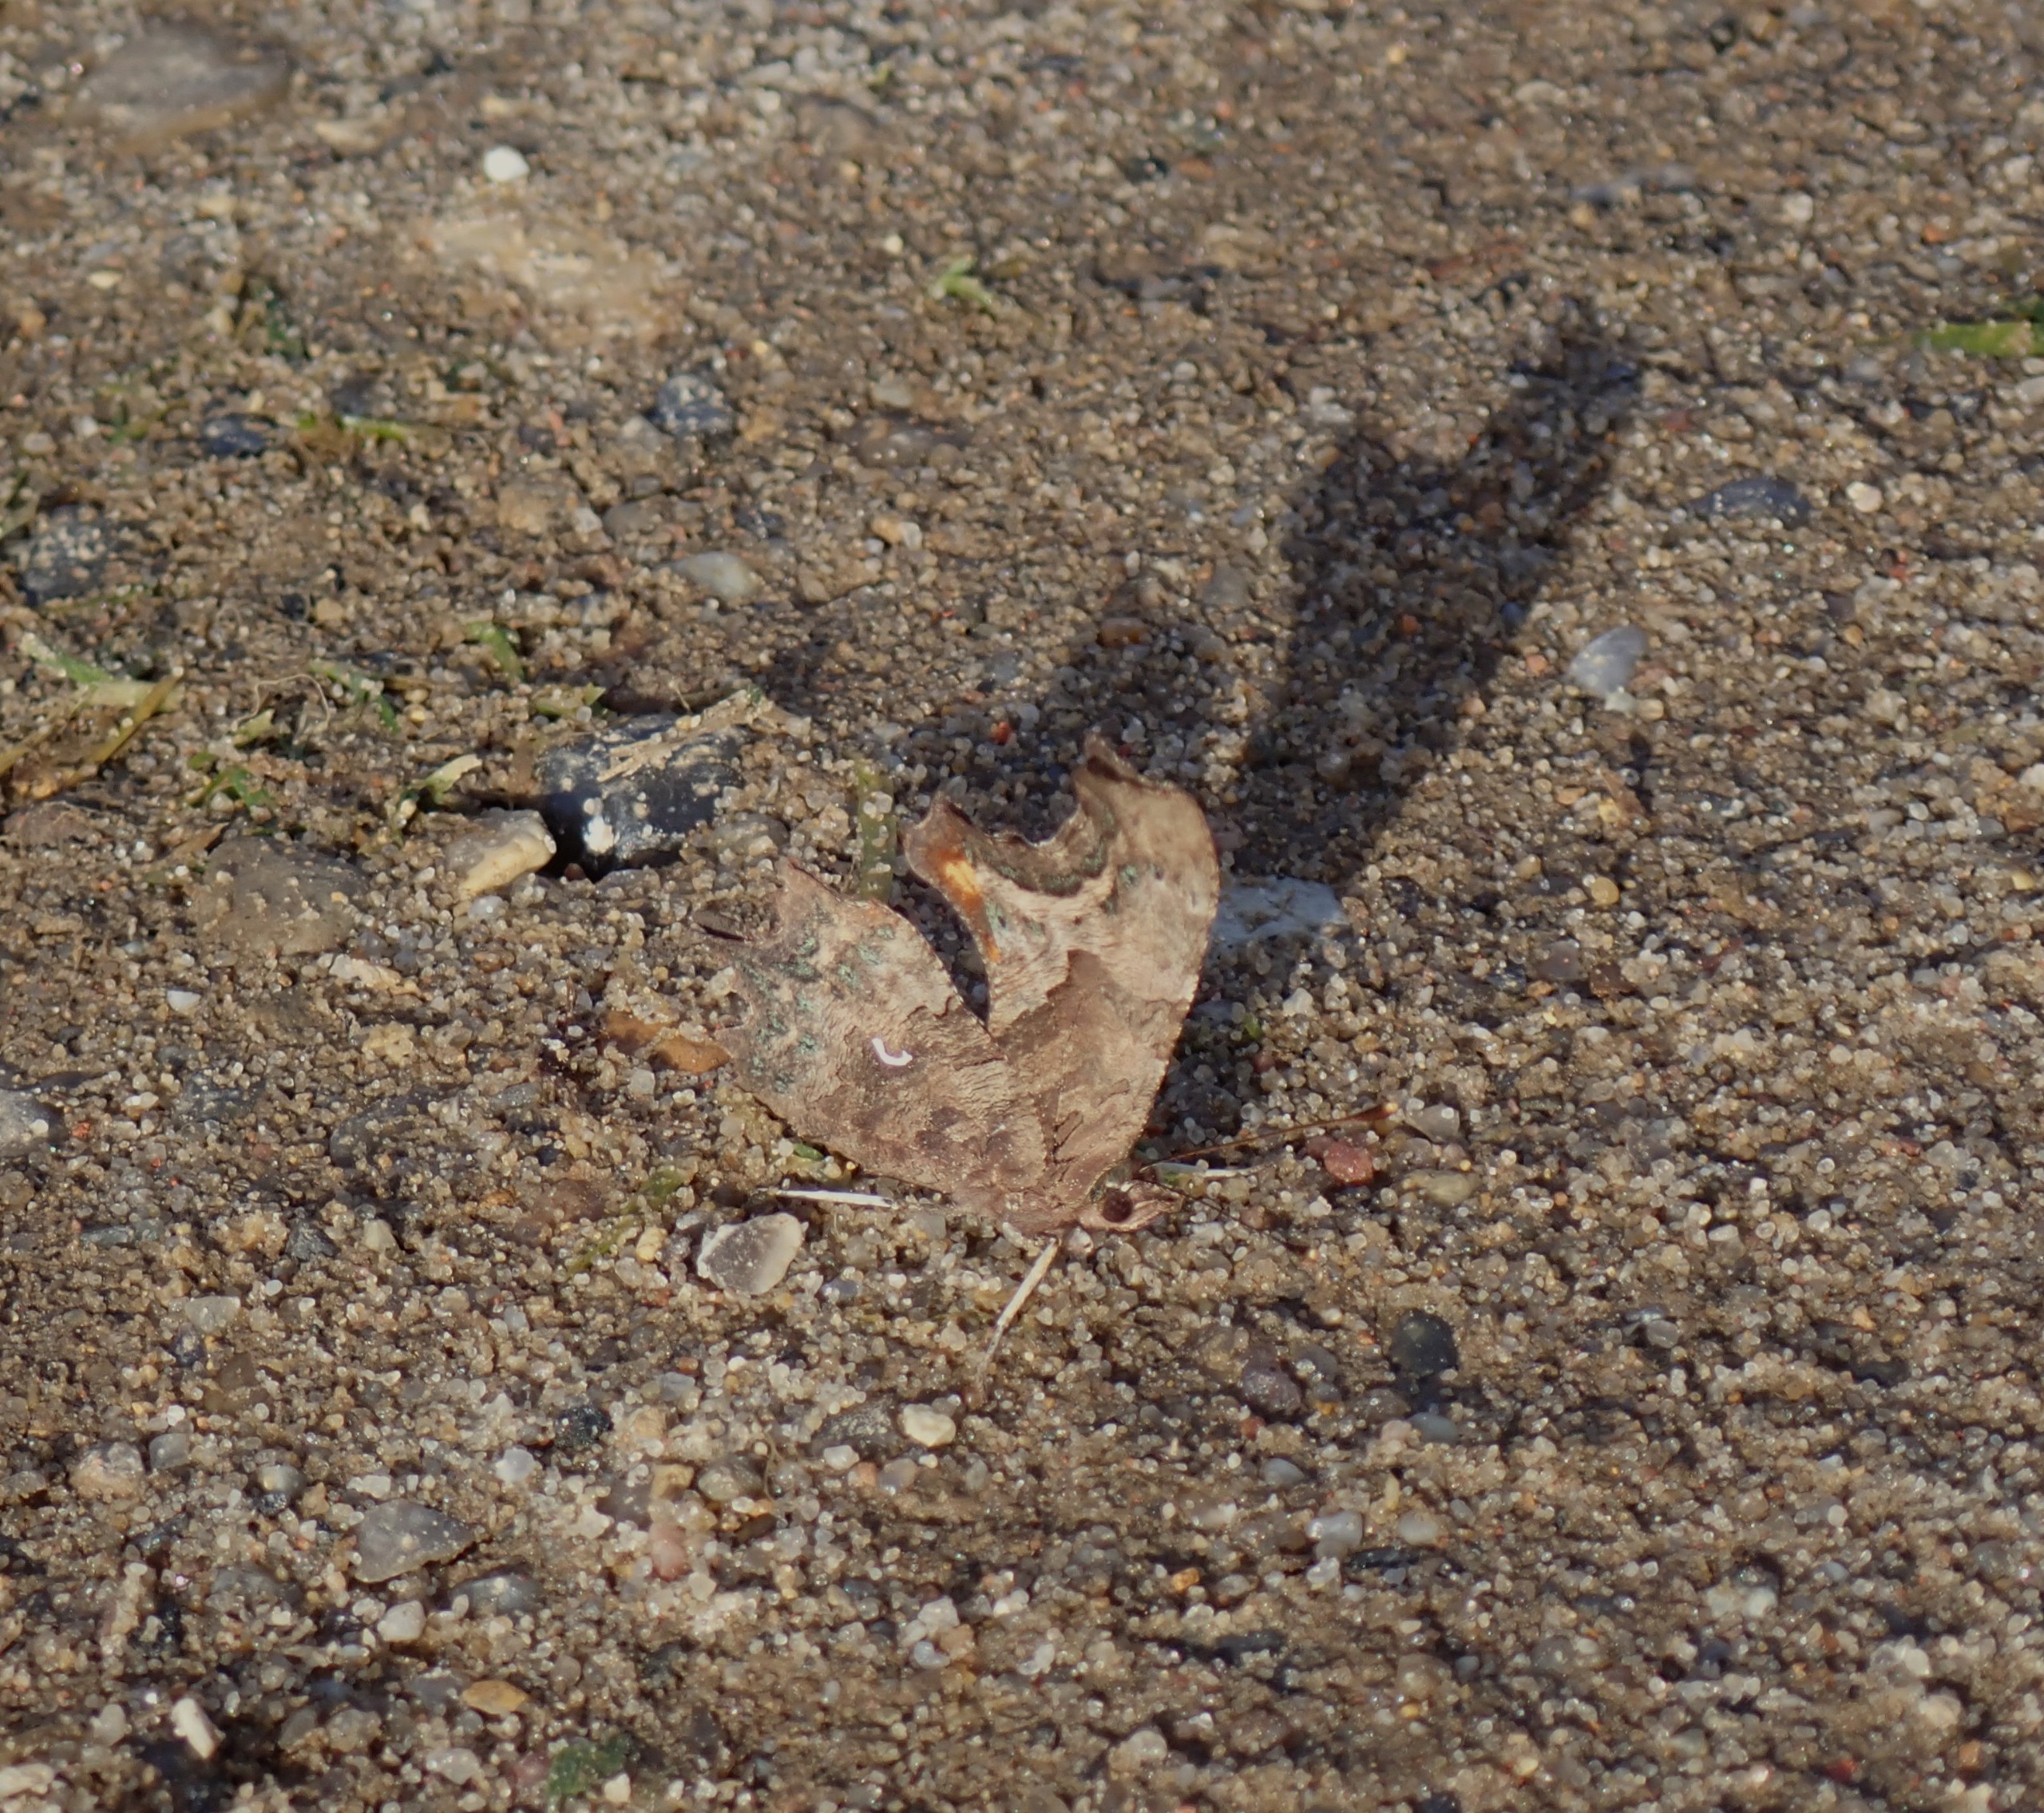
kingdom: Animalia
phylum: Arthropoda
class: Insecta
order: Lepidoptera
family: Nymphalidae
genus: Polygonia
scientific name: Polygonia c-album
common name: Det hvide C
